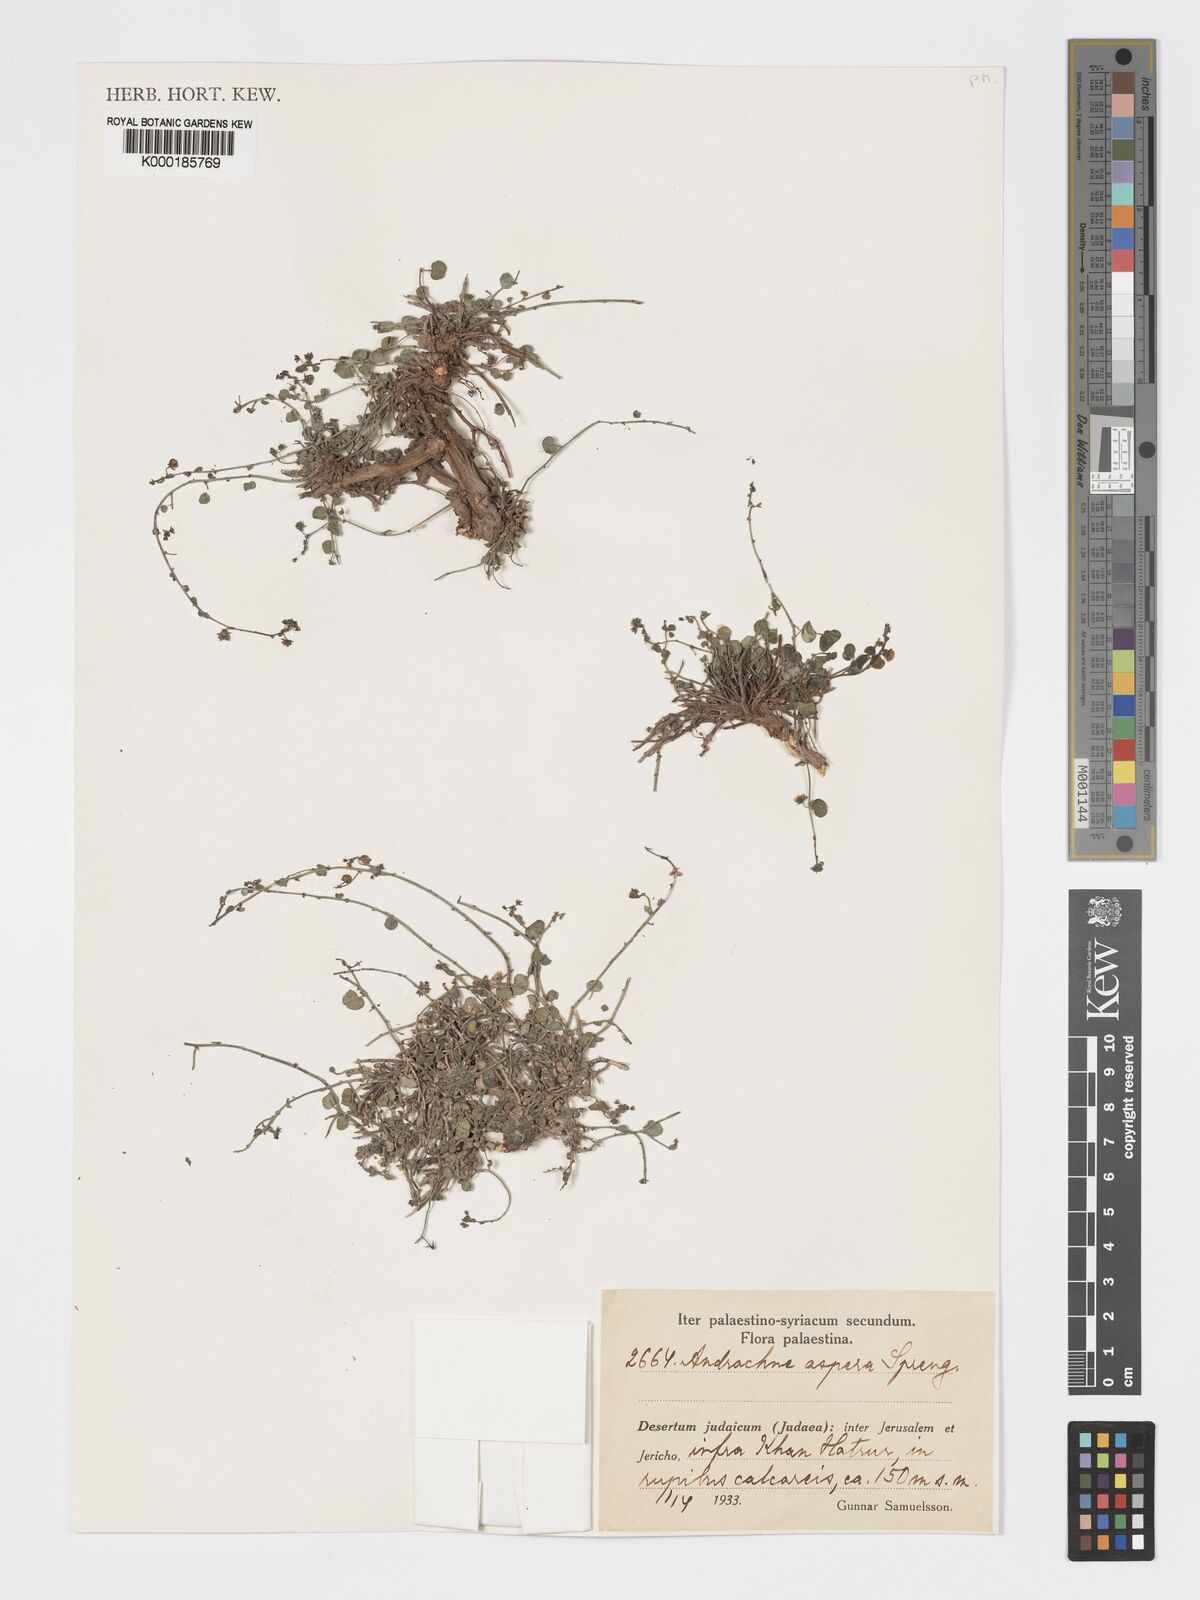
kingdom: Plantae
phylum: Tracheophyta
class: Magnoliopsida
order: Malpighiales
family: Phyllanthaceae
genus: Andrachne
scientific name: Andrachne aspera
